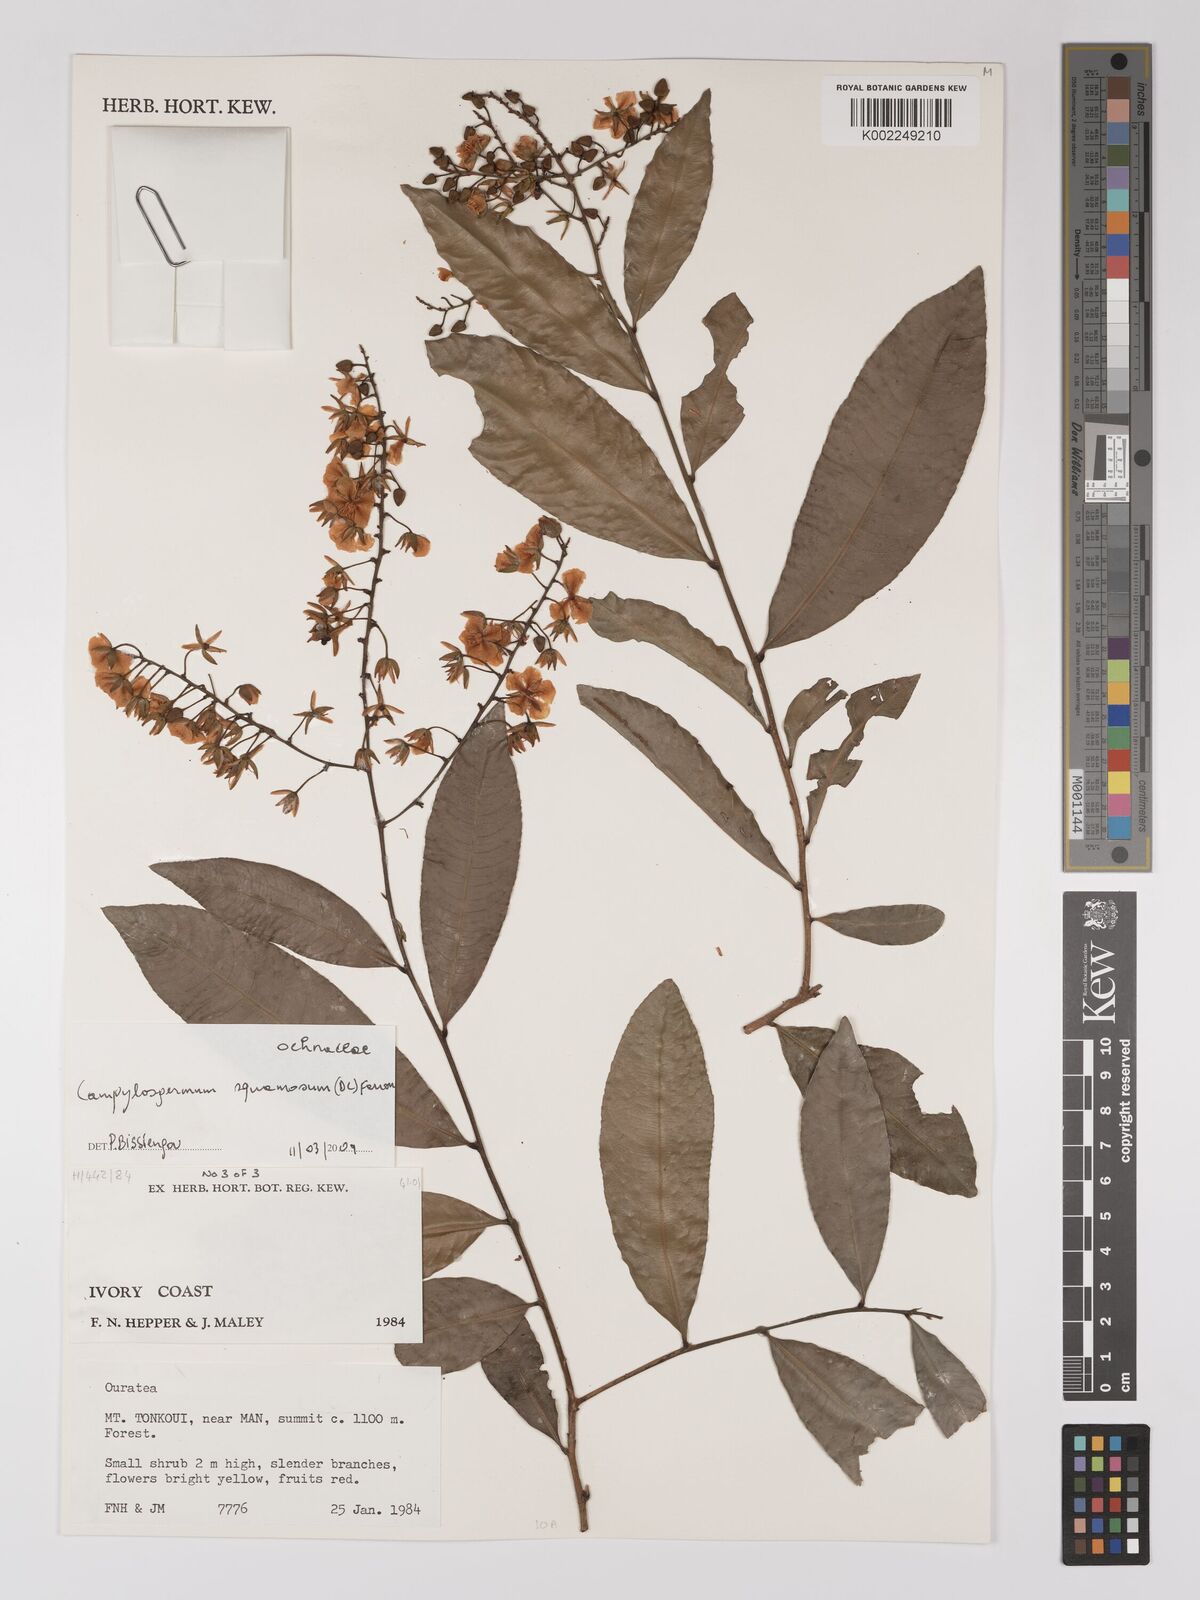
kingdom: Plantae
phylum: Tracheophyta
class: Magnoliopsida
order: Malpighiales
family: Ochnaceae
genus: Campylospermum
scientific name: Campylospermum squamosum
